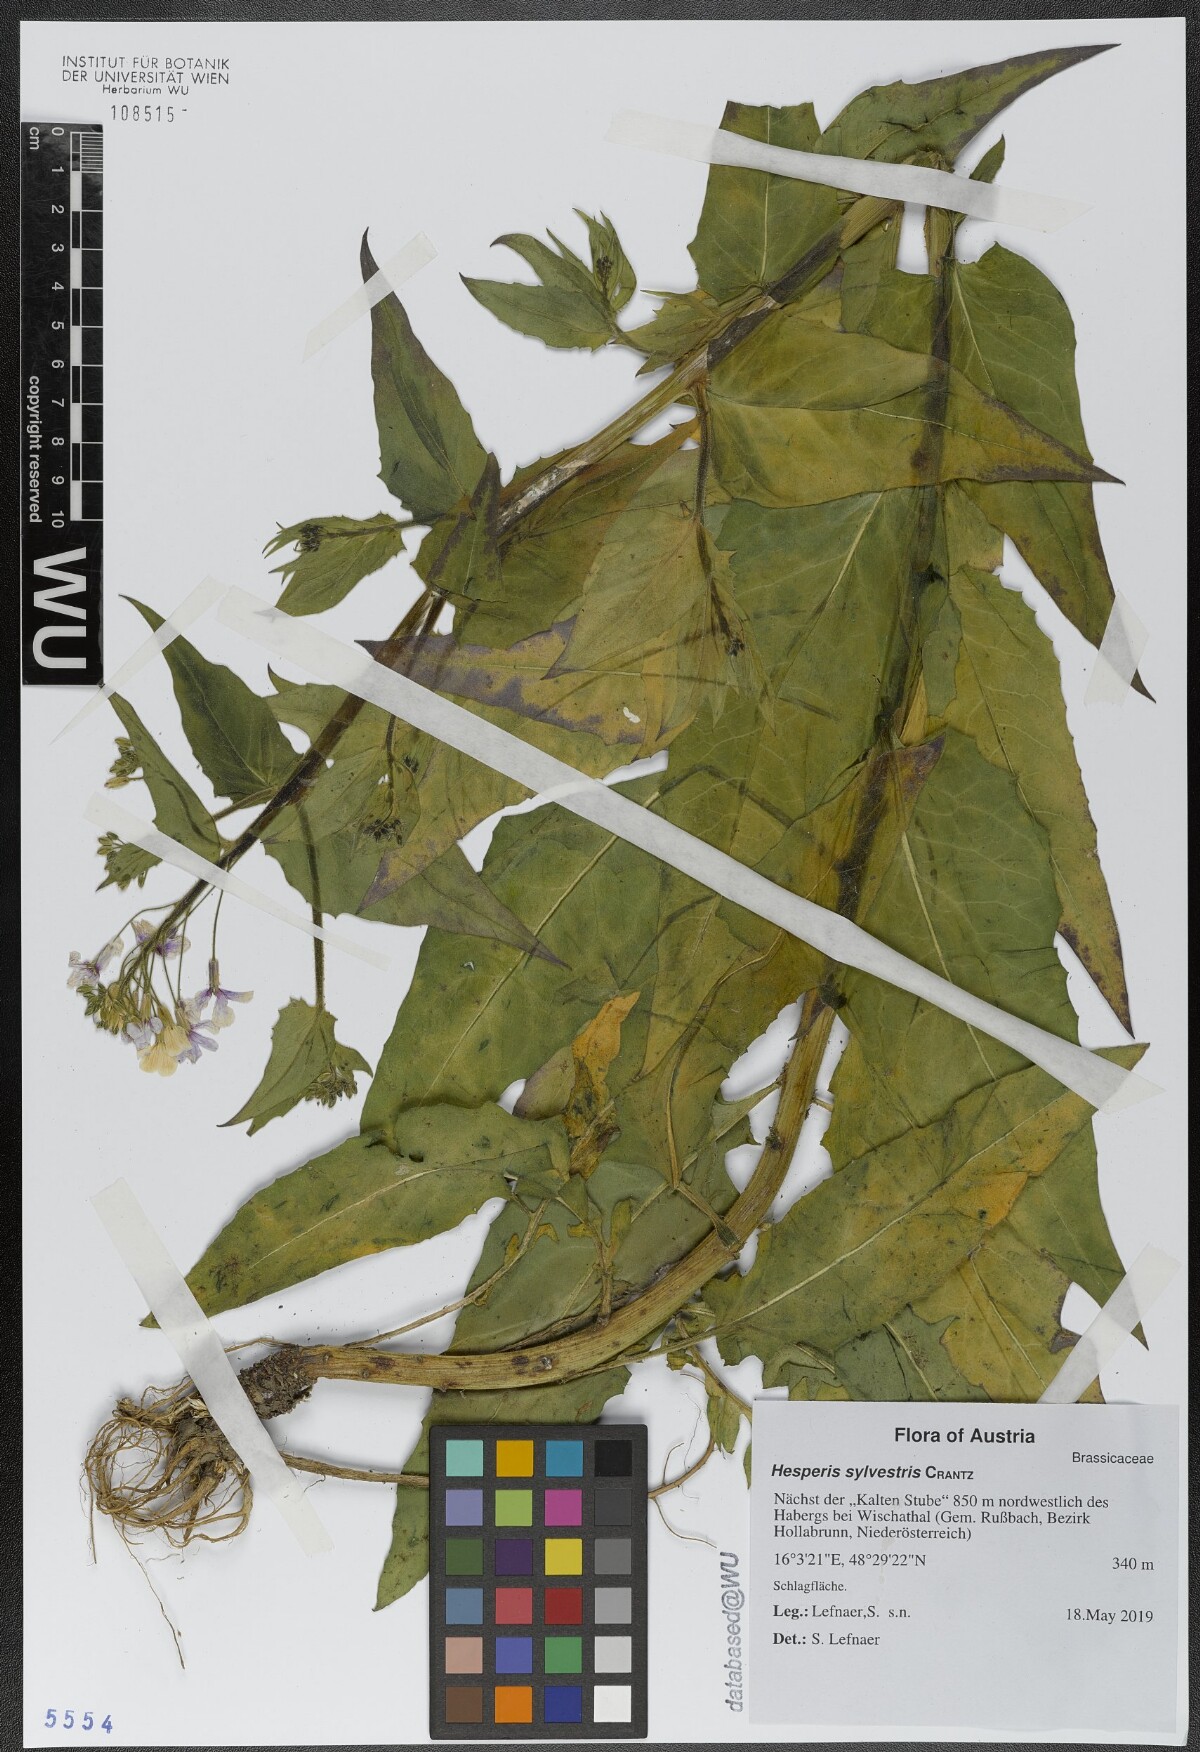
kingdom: Plantae
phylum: Tracheophyta
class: Magnoliopsida
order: Brassicales
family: Brassicaceae
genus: Hesperis
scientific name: Hesperis sylvestris
